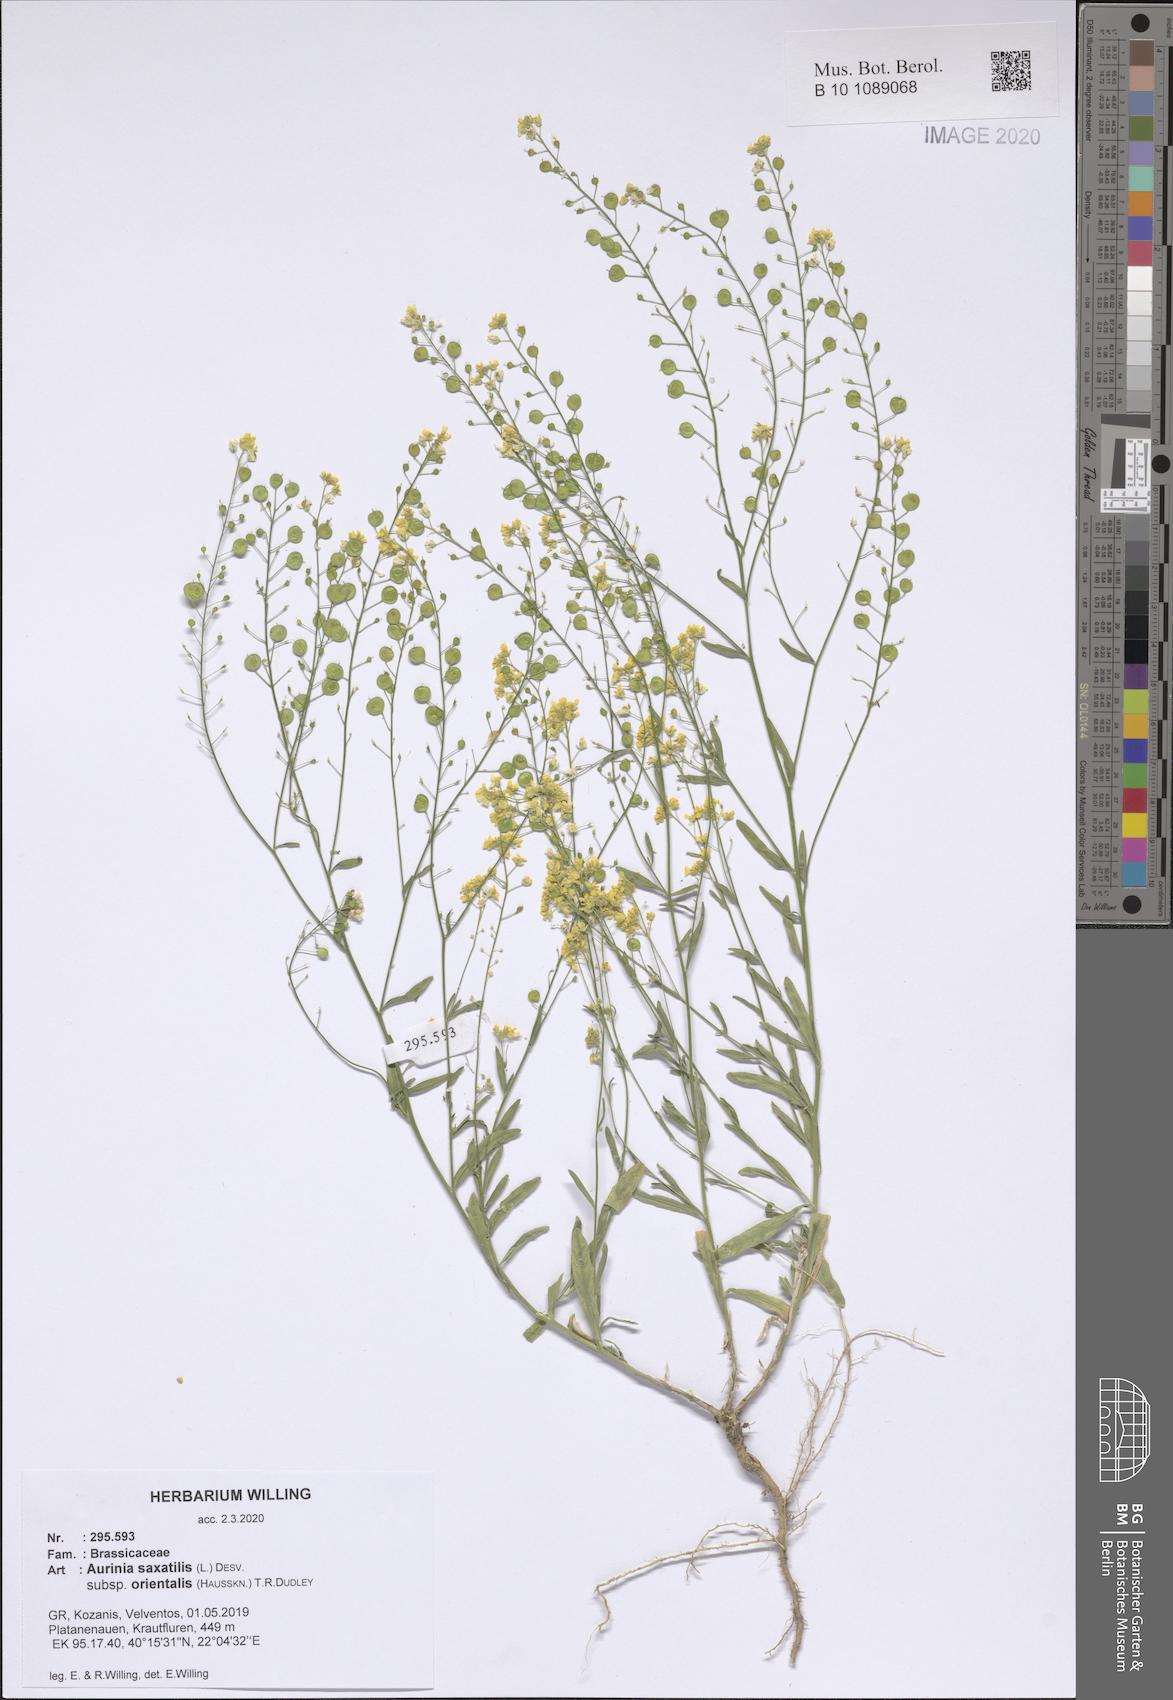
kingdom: Plantae
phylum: Tracheophyta
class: Magnoliopsida
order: Brassicales
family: Brassicaceae
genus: Aurinia
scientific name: Aurinia saxatilis
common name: Golden-tuft alyssum
